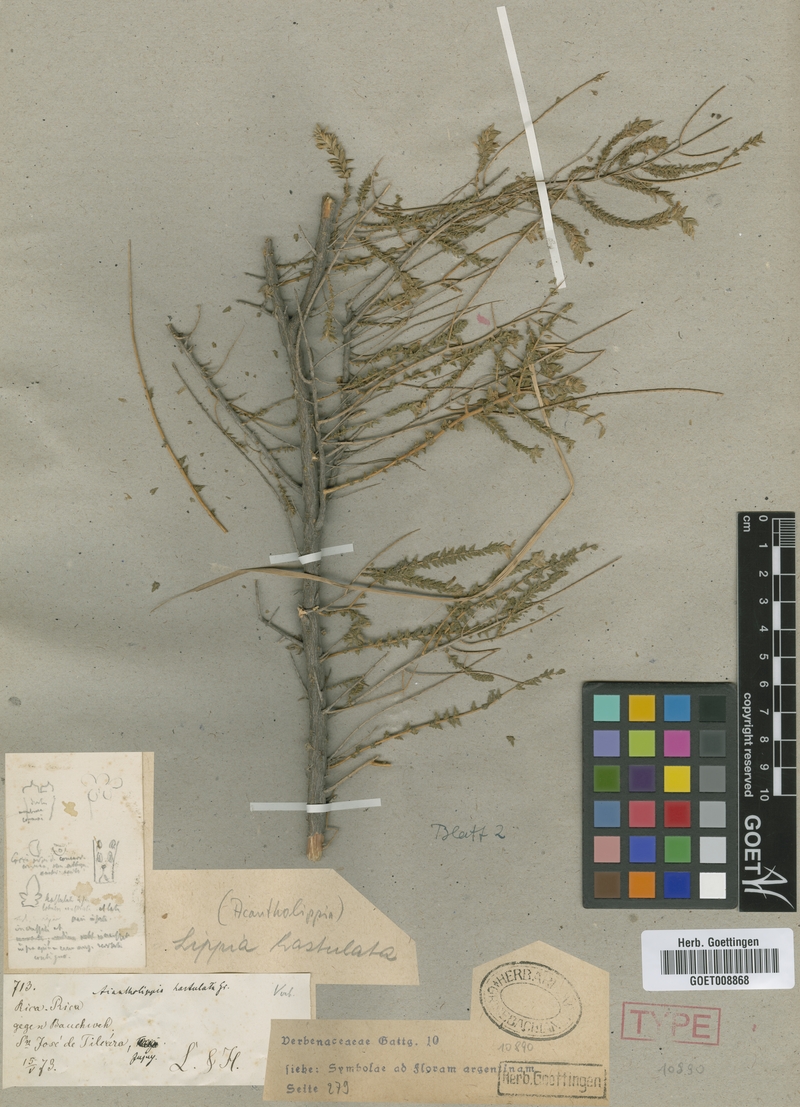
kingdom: Plantae
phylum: Tracheophyta
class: Magnoliopsida
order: Lamiales
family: Verbenaceae
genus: Aloysia
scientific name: Aloysia salsoloides
